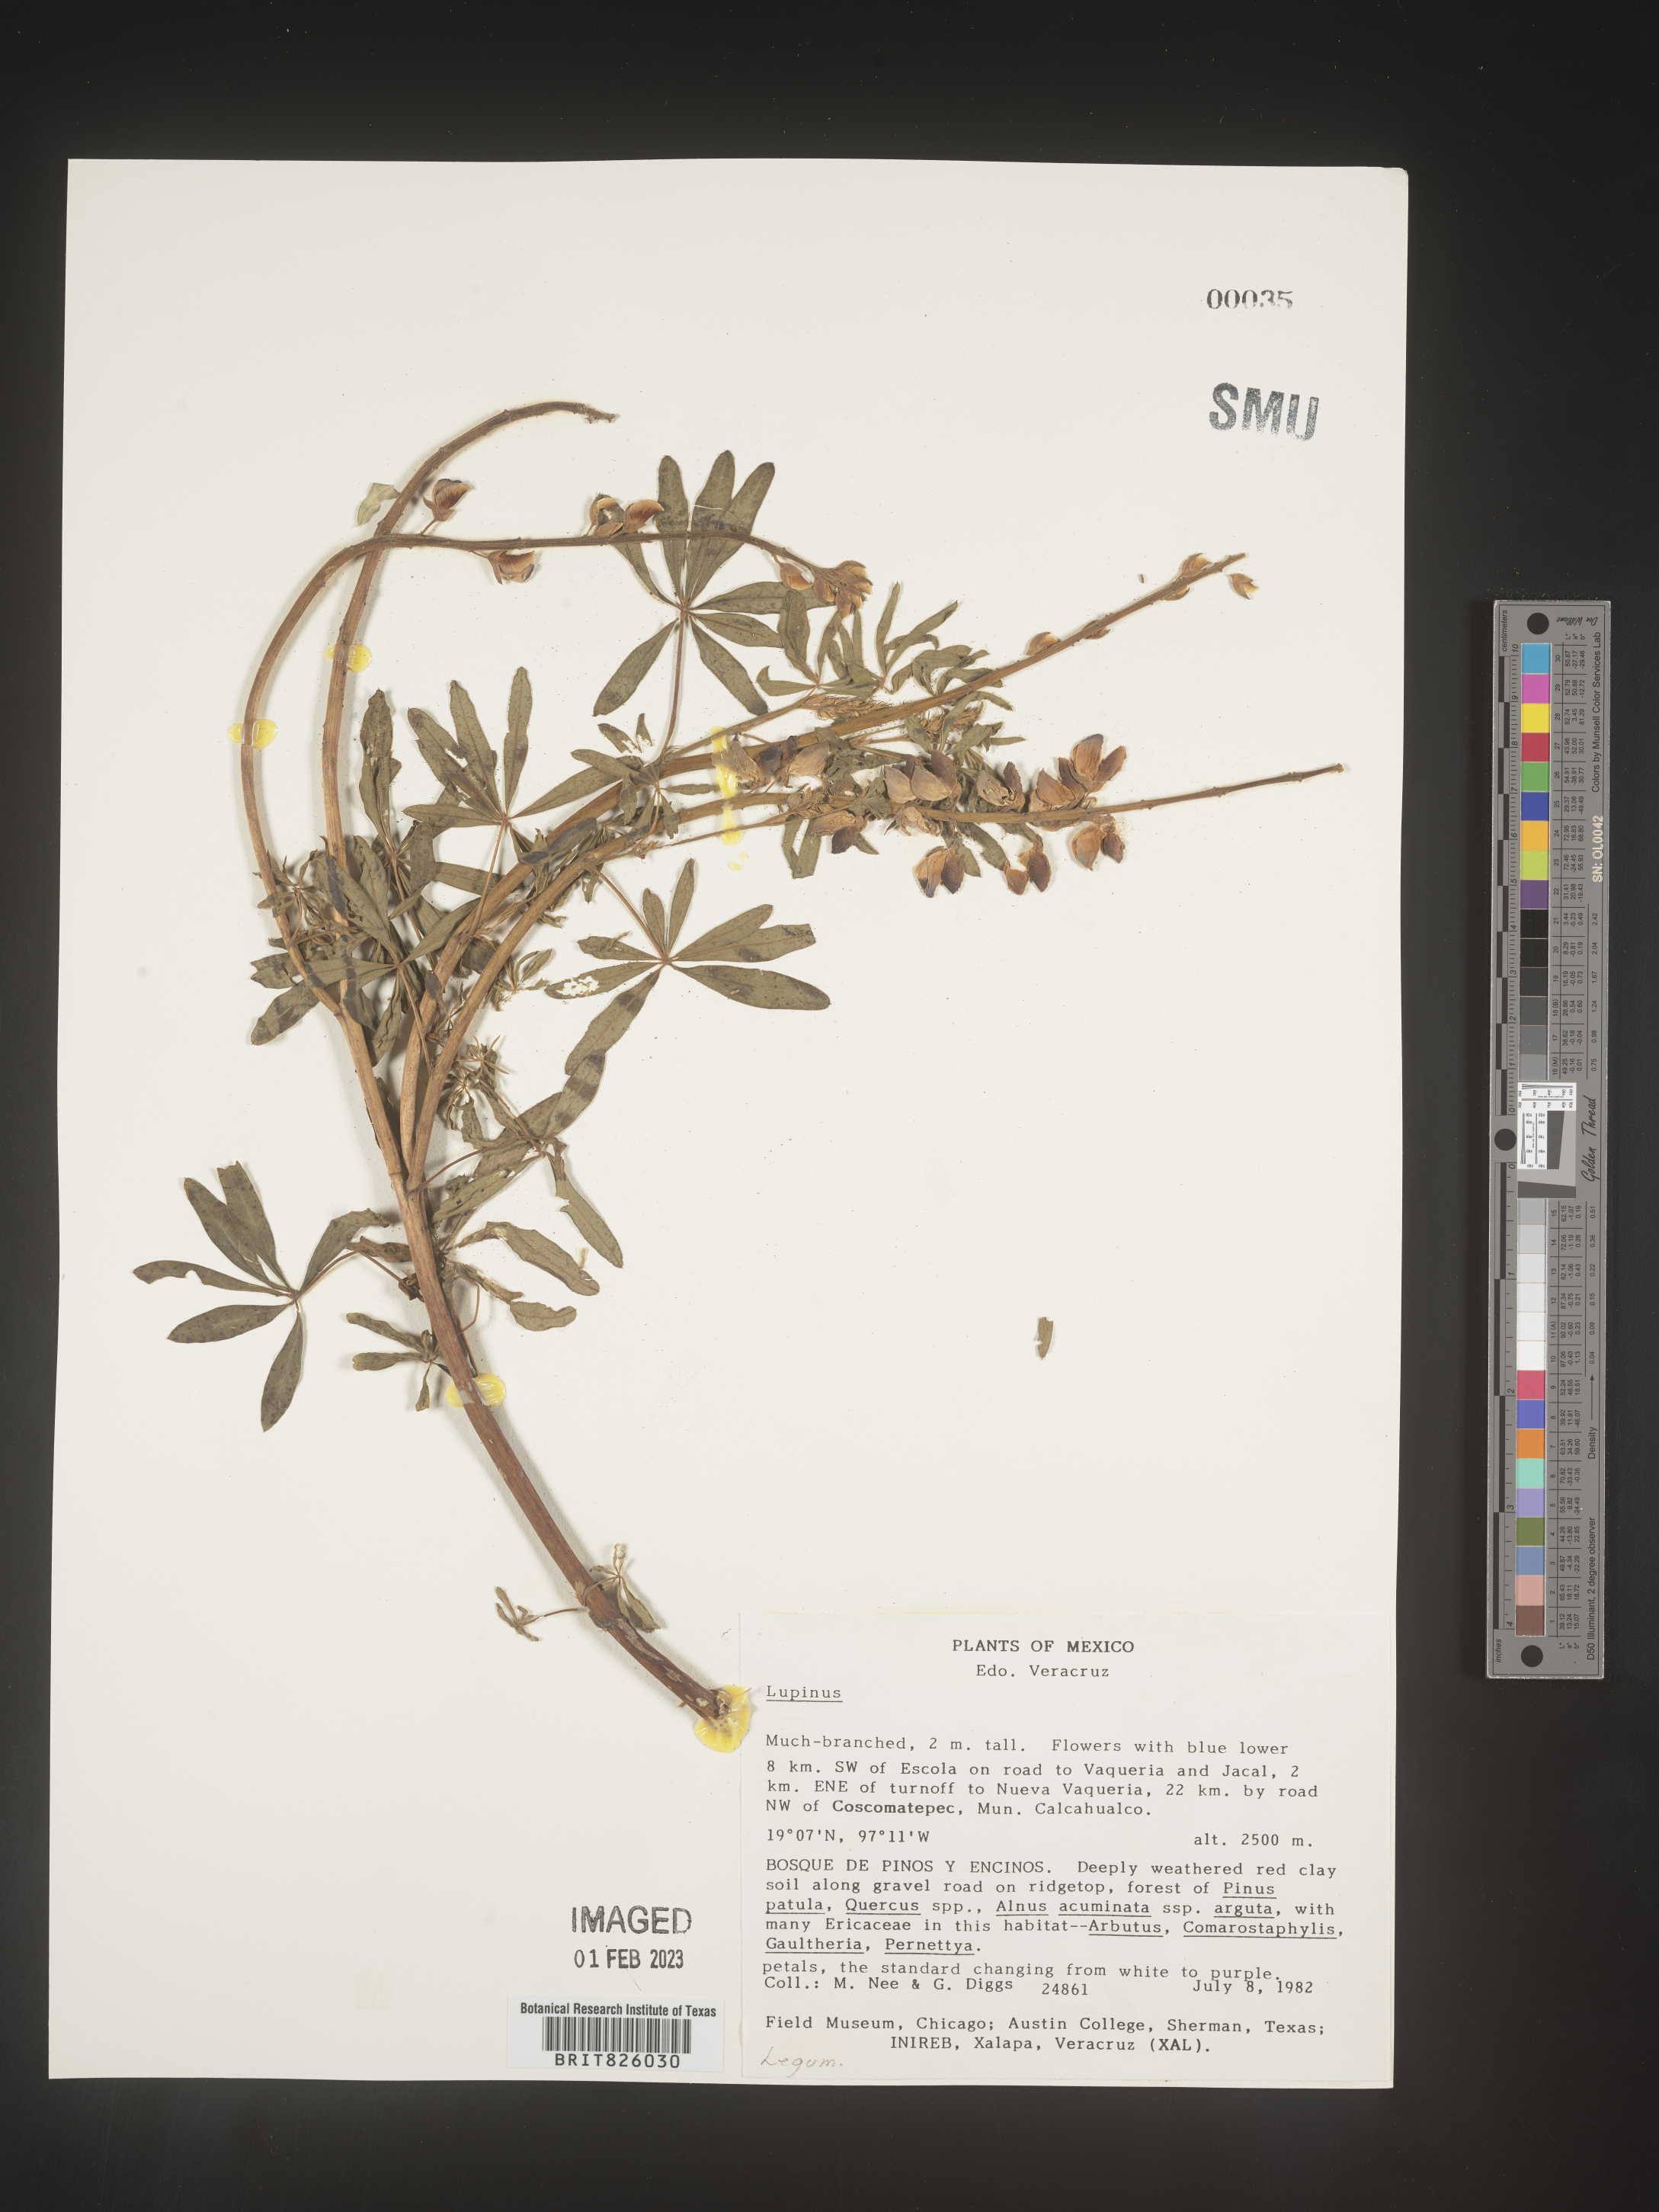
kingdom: Plantae
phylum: Tracheophyta
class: Magnoliopsida
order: Fabales
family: Fabaceae
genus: Lupinus
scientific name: Lupinus
